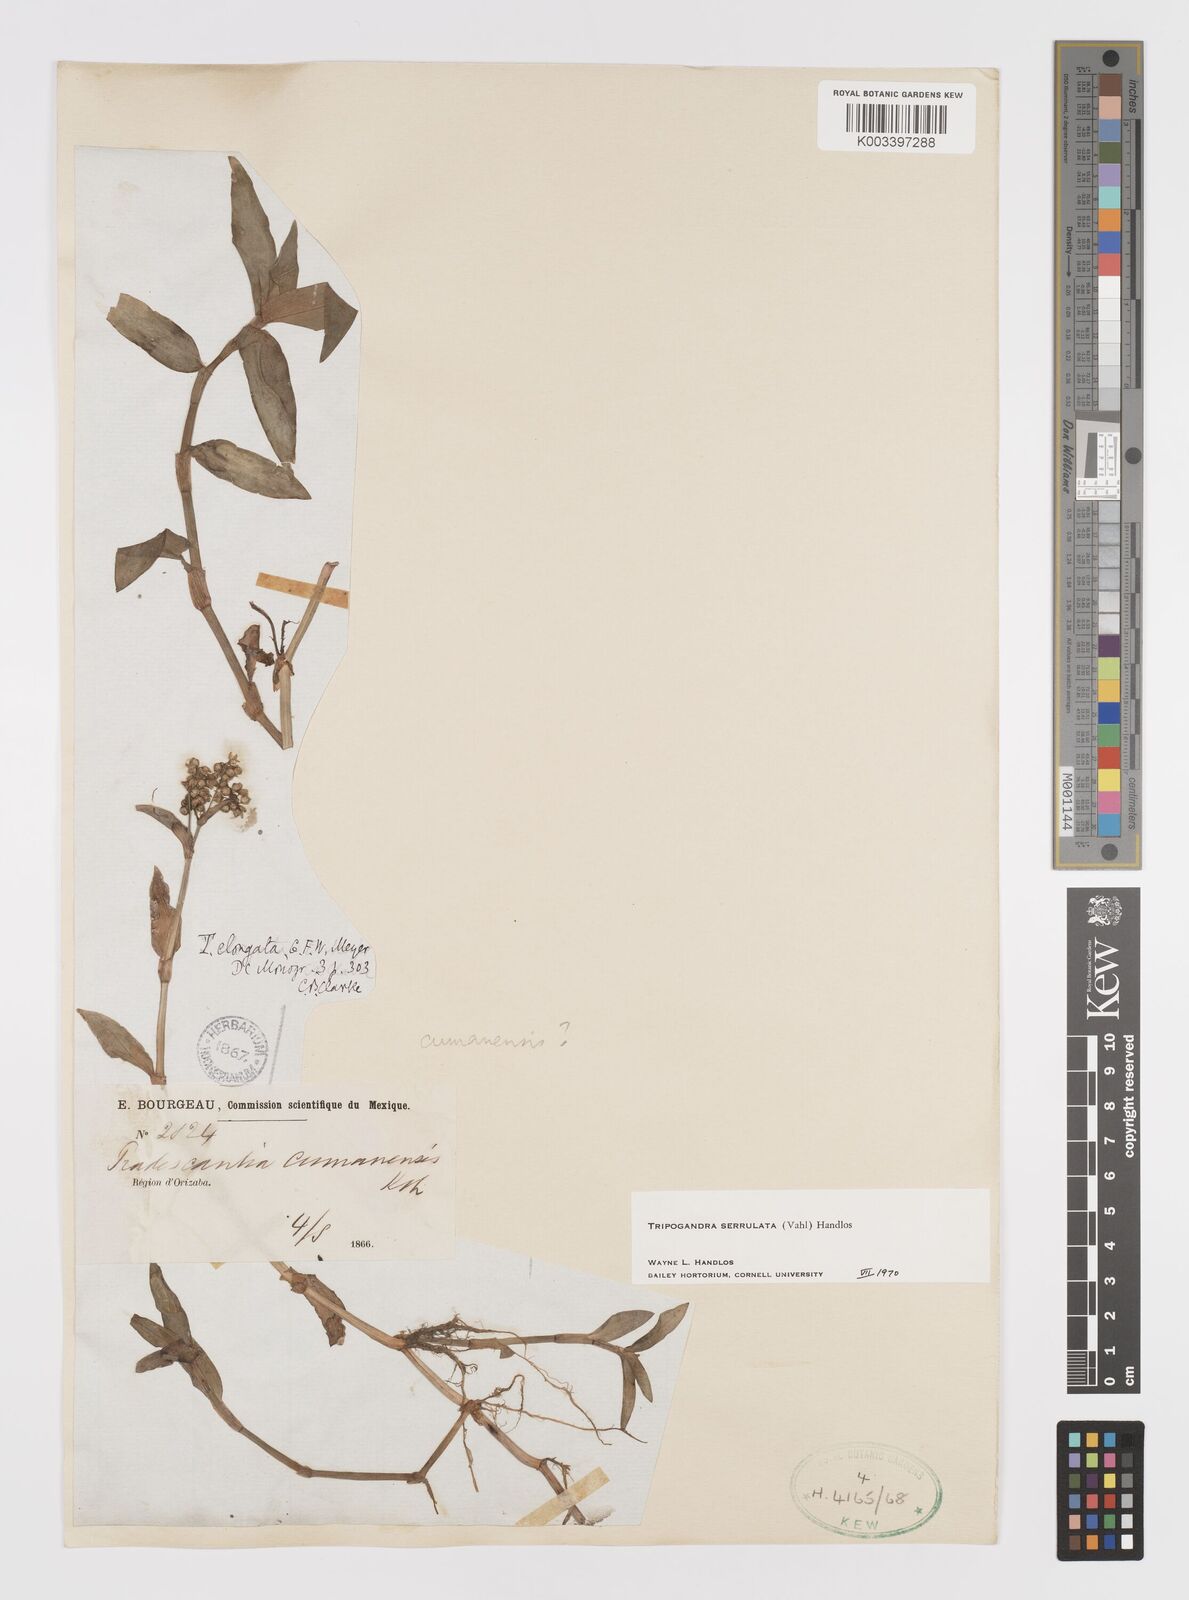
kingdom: Plantae
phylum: Tracheophyta
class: Liliopsida
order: Commelinales
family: Commelinaceae
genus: Callisia
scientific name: Callisia serrulata
